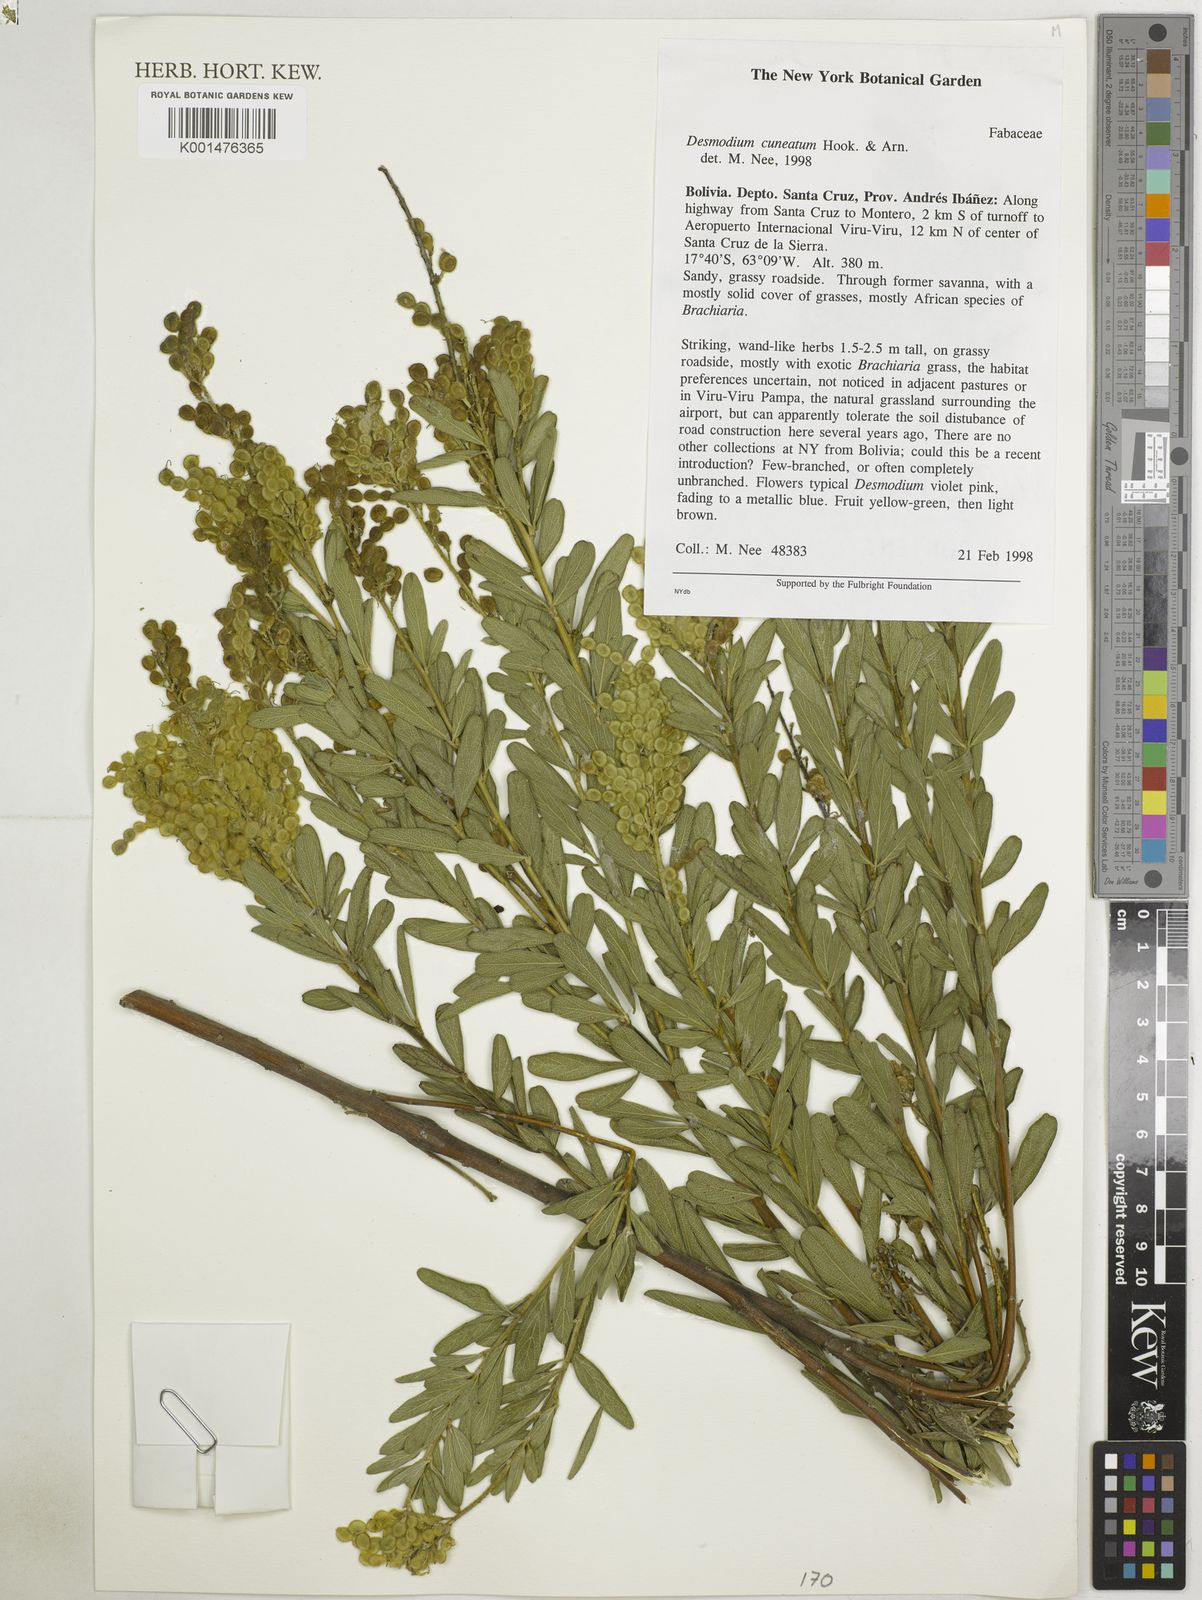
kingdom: Plantae
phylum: Tracheophyta
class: Magnoliopsida
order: Fabales
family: Fabaceae
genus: Desmodium
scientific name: Desmodium cuneatum
